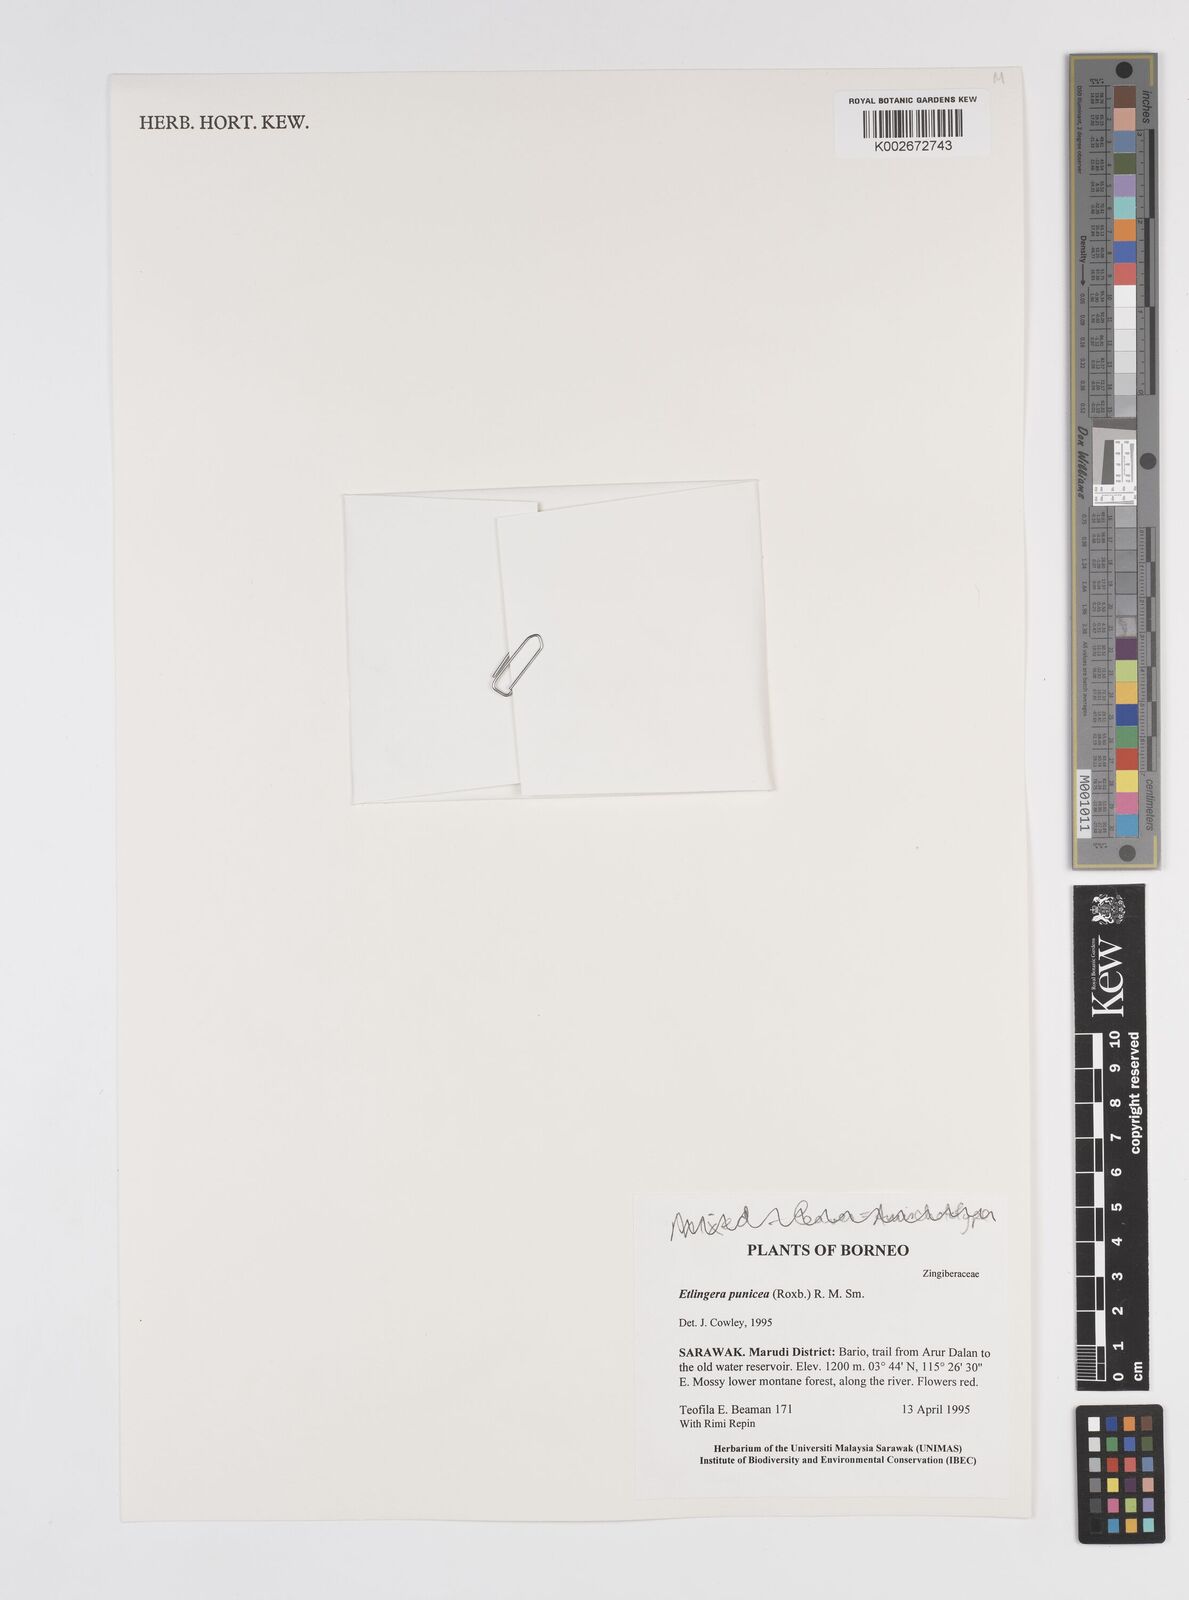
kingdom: Plantae
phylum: Tracheophyta
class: Liliopsida
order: Zingiberales
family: Zingiberaceae
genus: Etlingera
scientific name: Etlingera punicea
